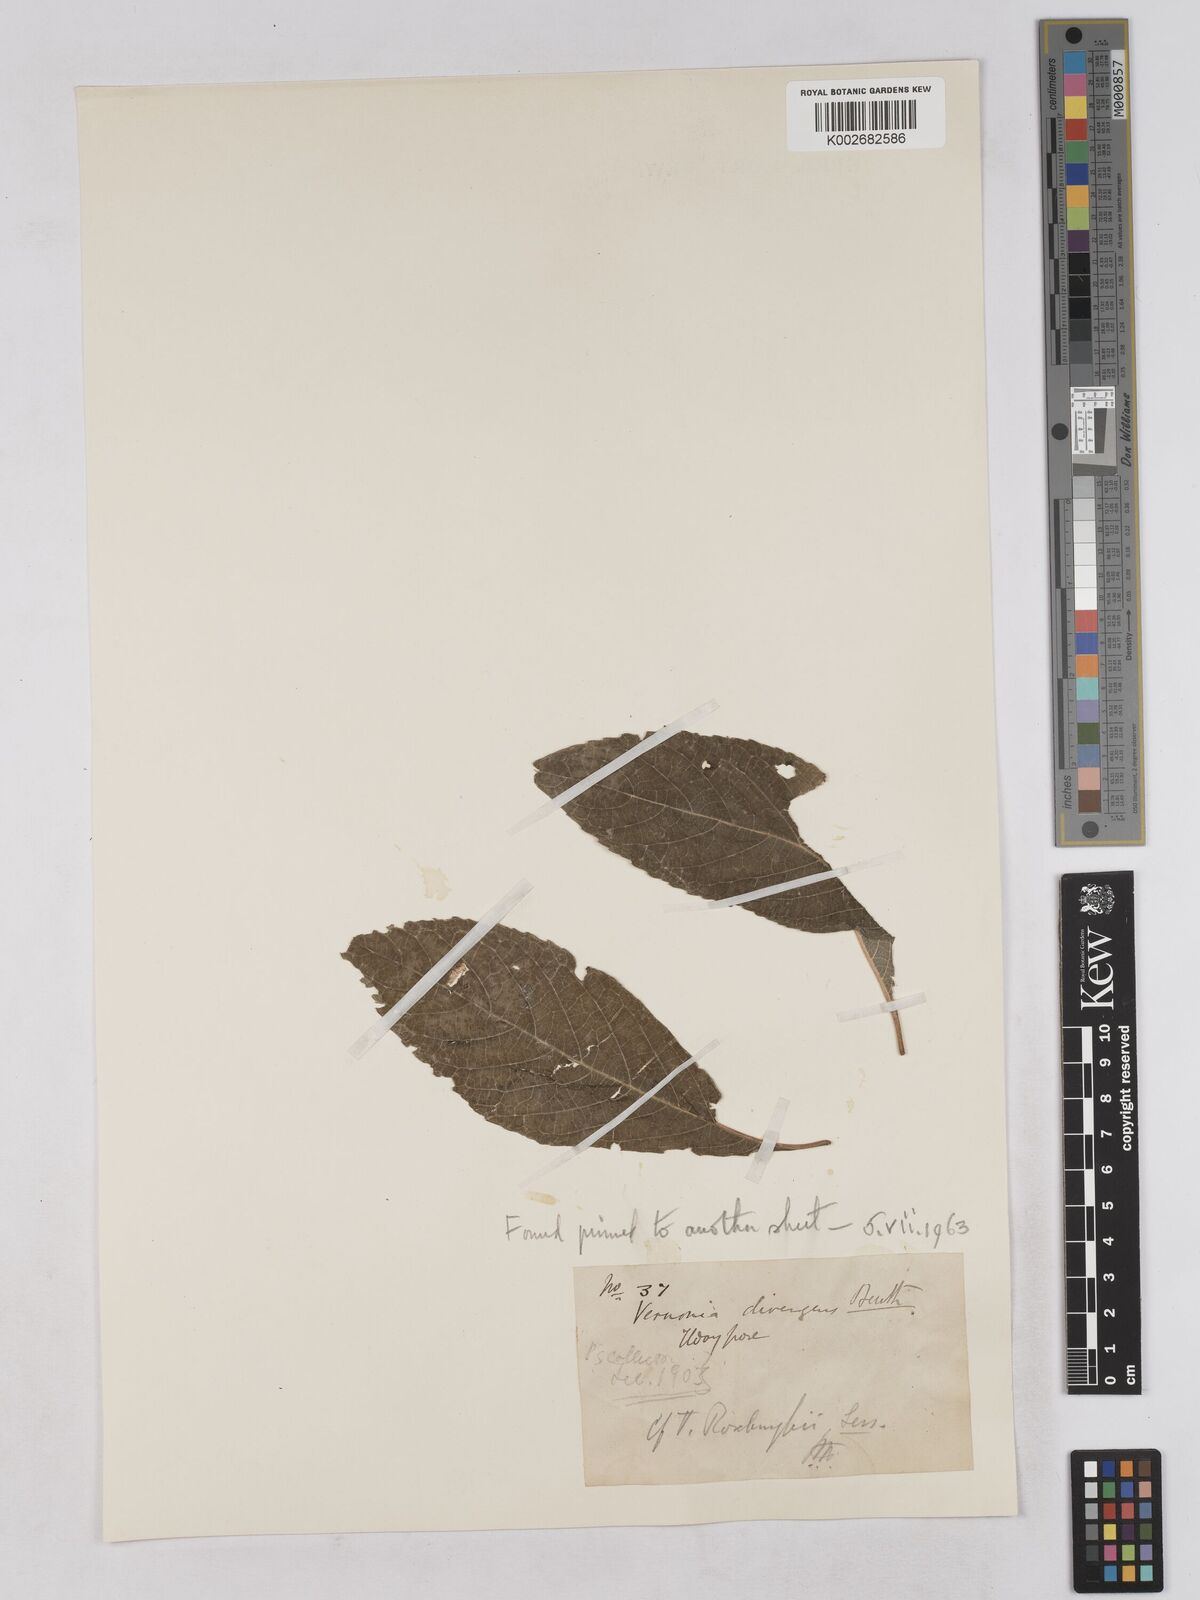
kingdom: Plantae
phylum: Tracheophyta
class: Magnoliopsida
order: Asterales
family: Asteraceae
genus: Acilepis
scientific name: Acilepis aspera
